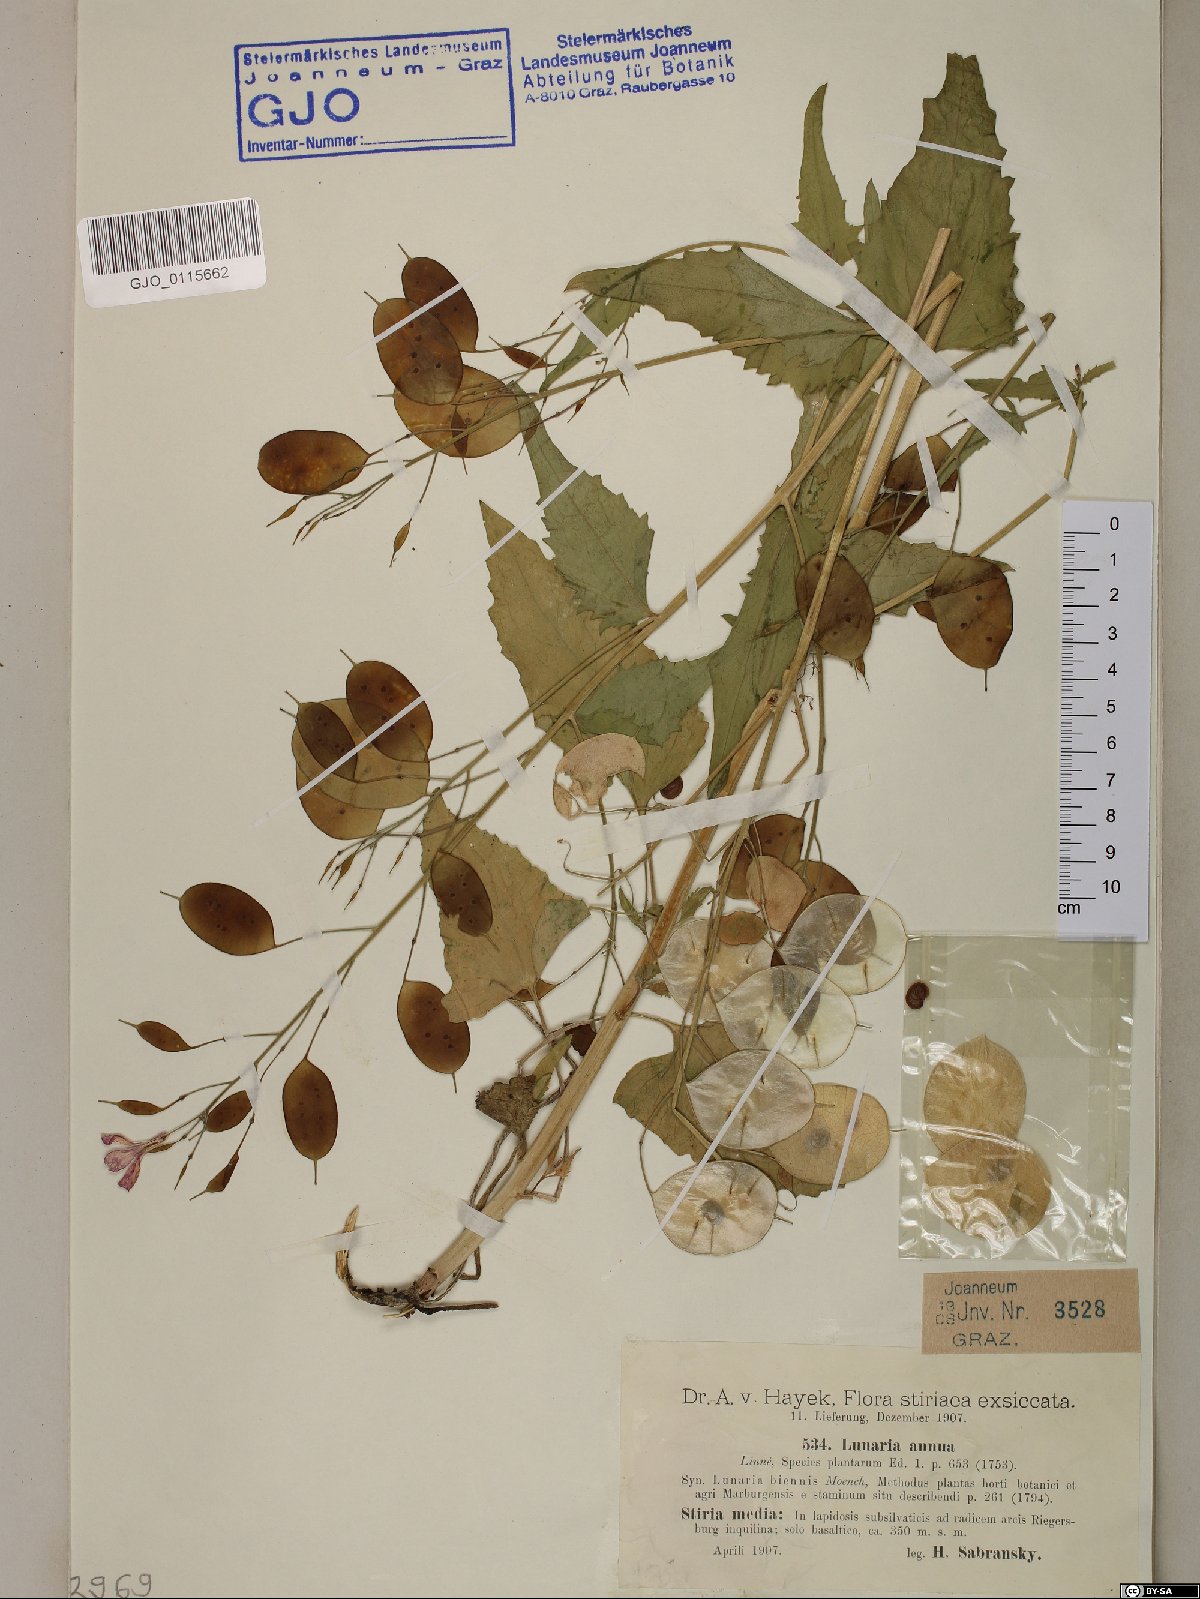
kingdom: Plantae
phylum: Tracheophyta
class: Magnoliopsida
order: Brassicales
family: Brassicaceae
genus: Lunaria
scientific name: Lunaria annua
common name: Honesty
